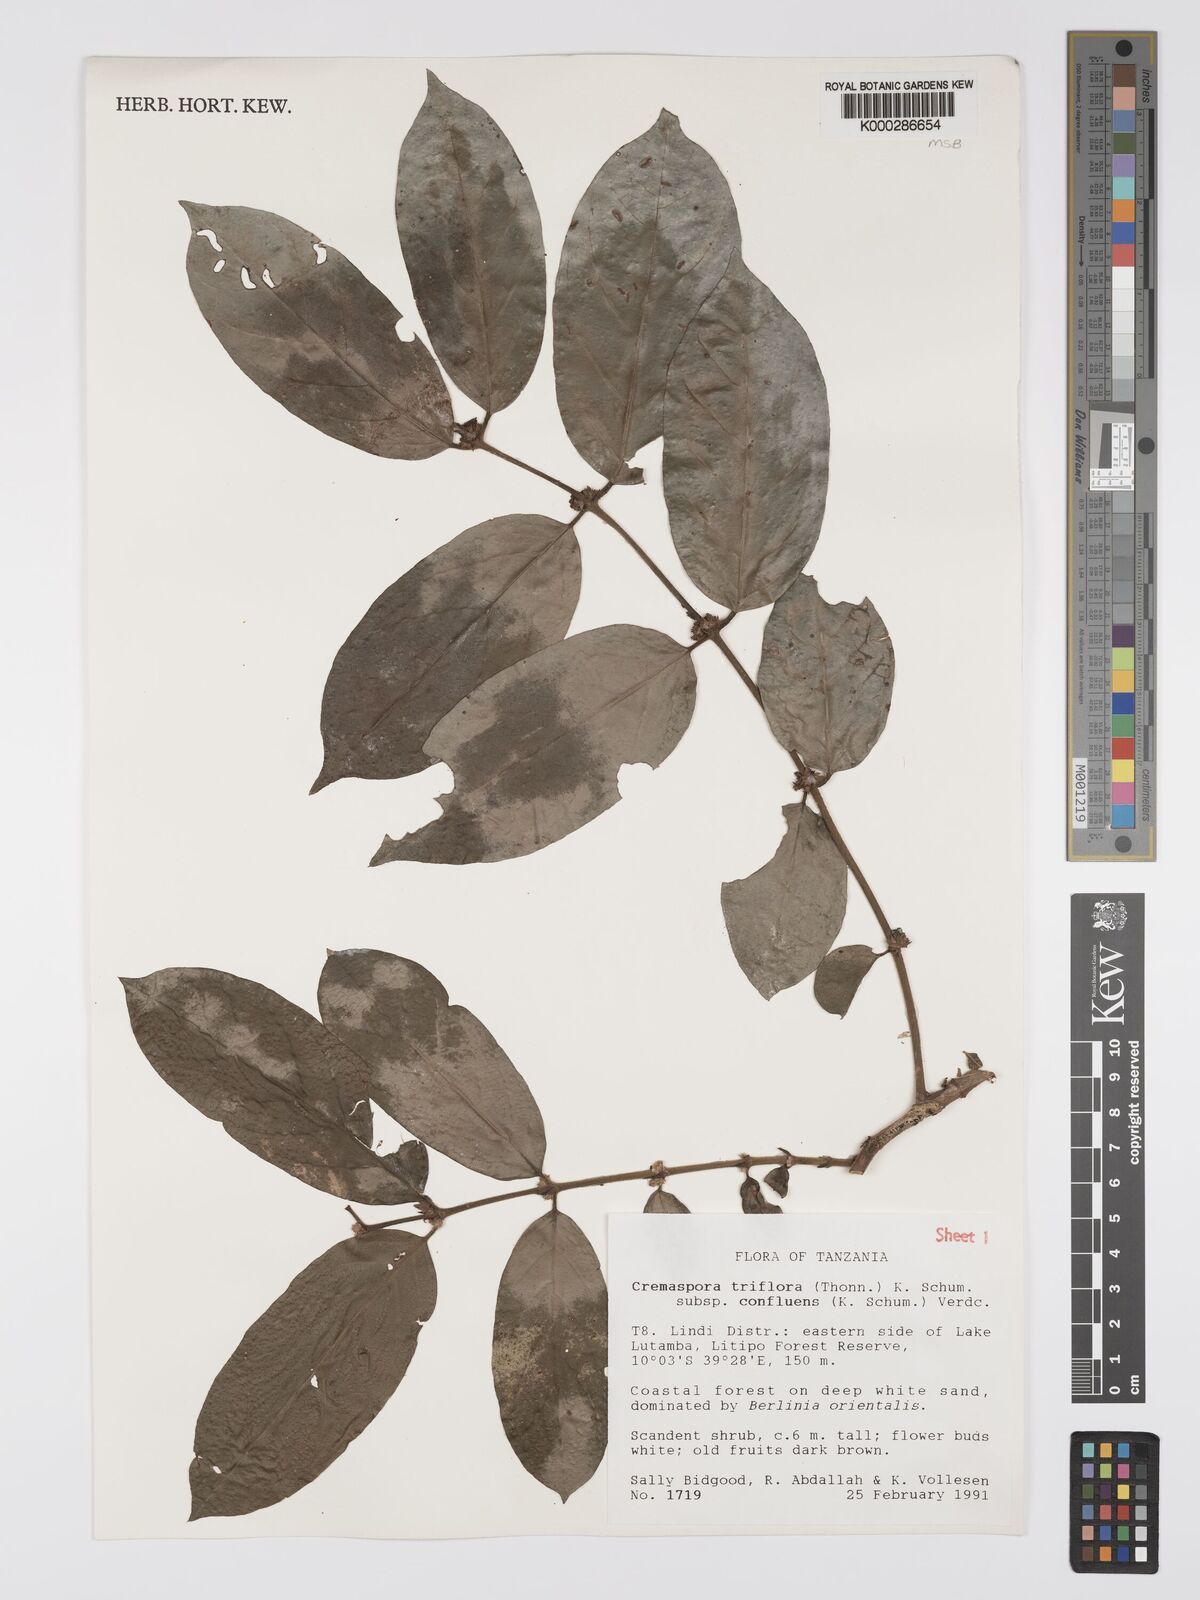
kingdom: Plantae
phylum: Tracheophyta
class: Magnoliopsida
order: Gentianales
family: Rubiaceae
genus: Cremaspora
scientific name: Cremaspora triflora
